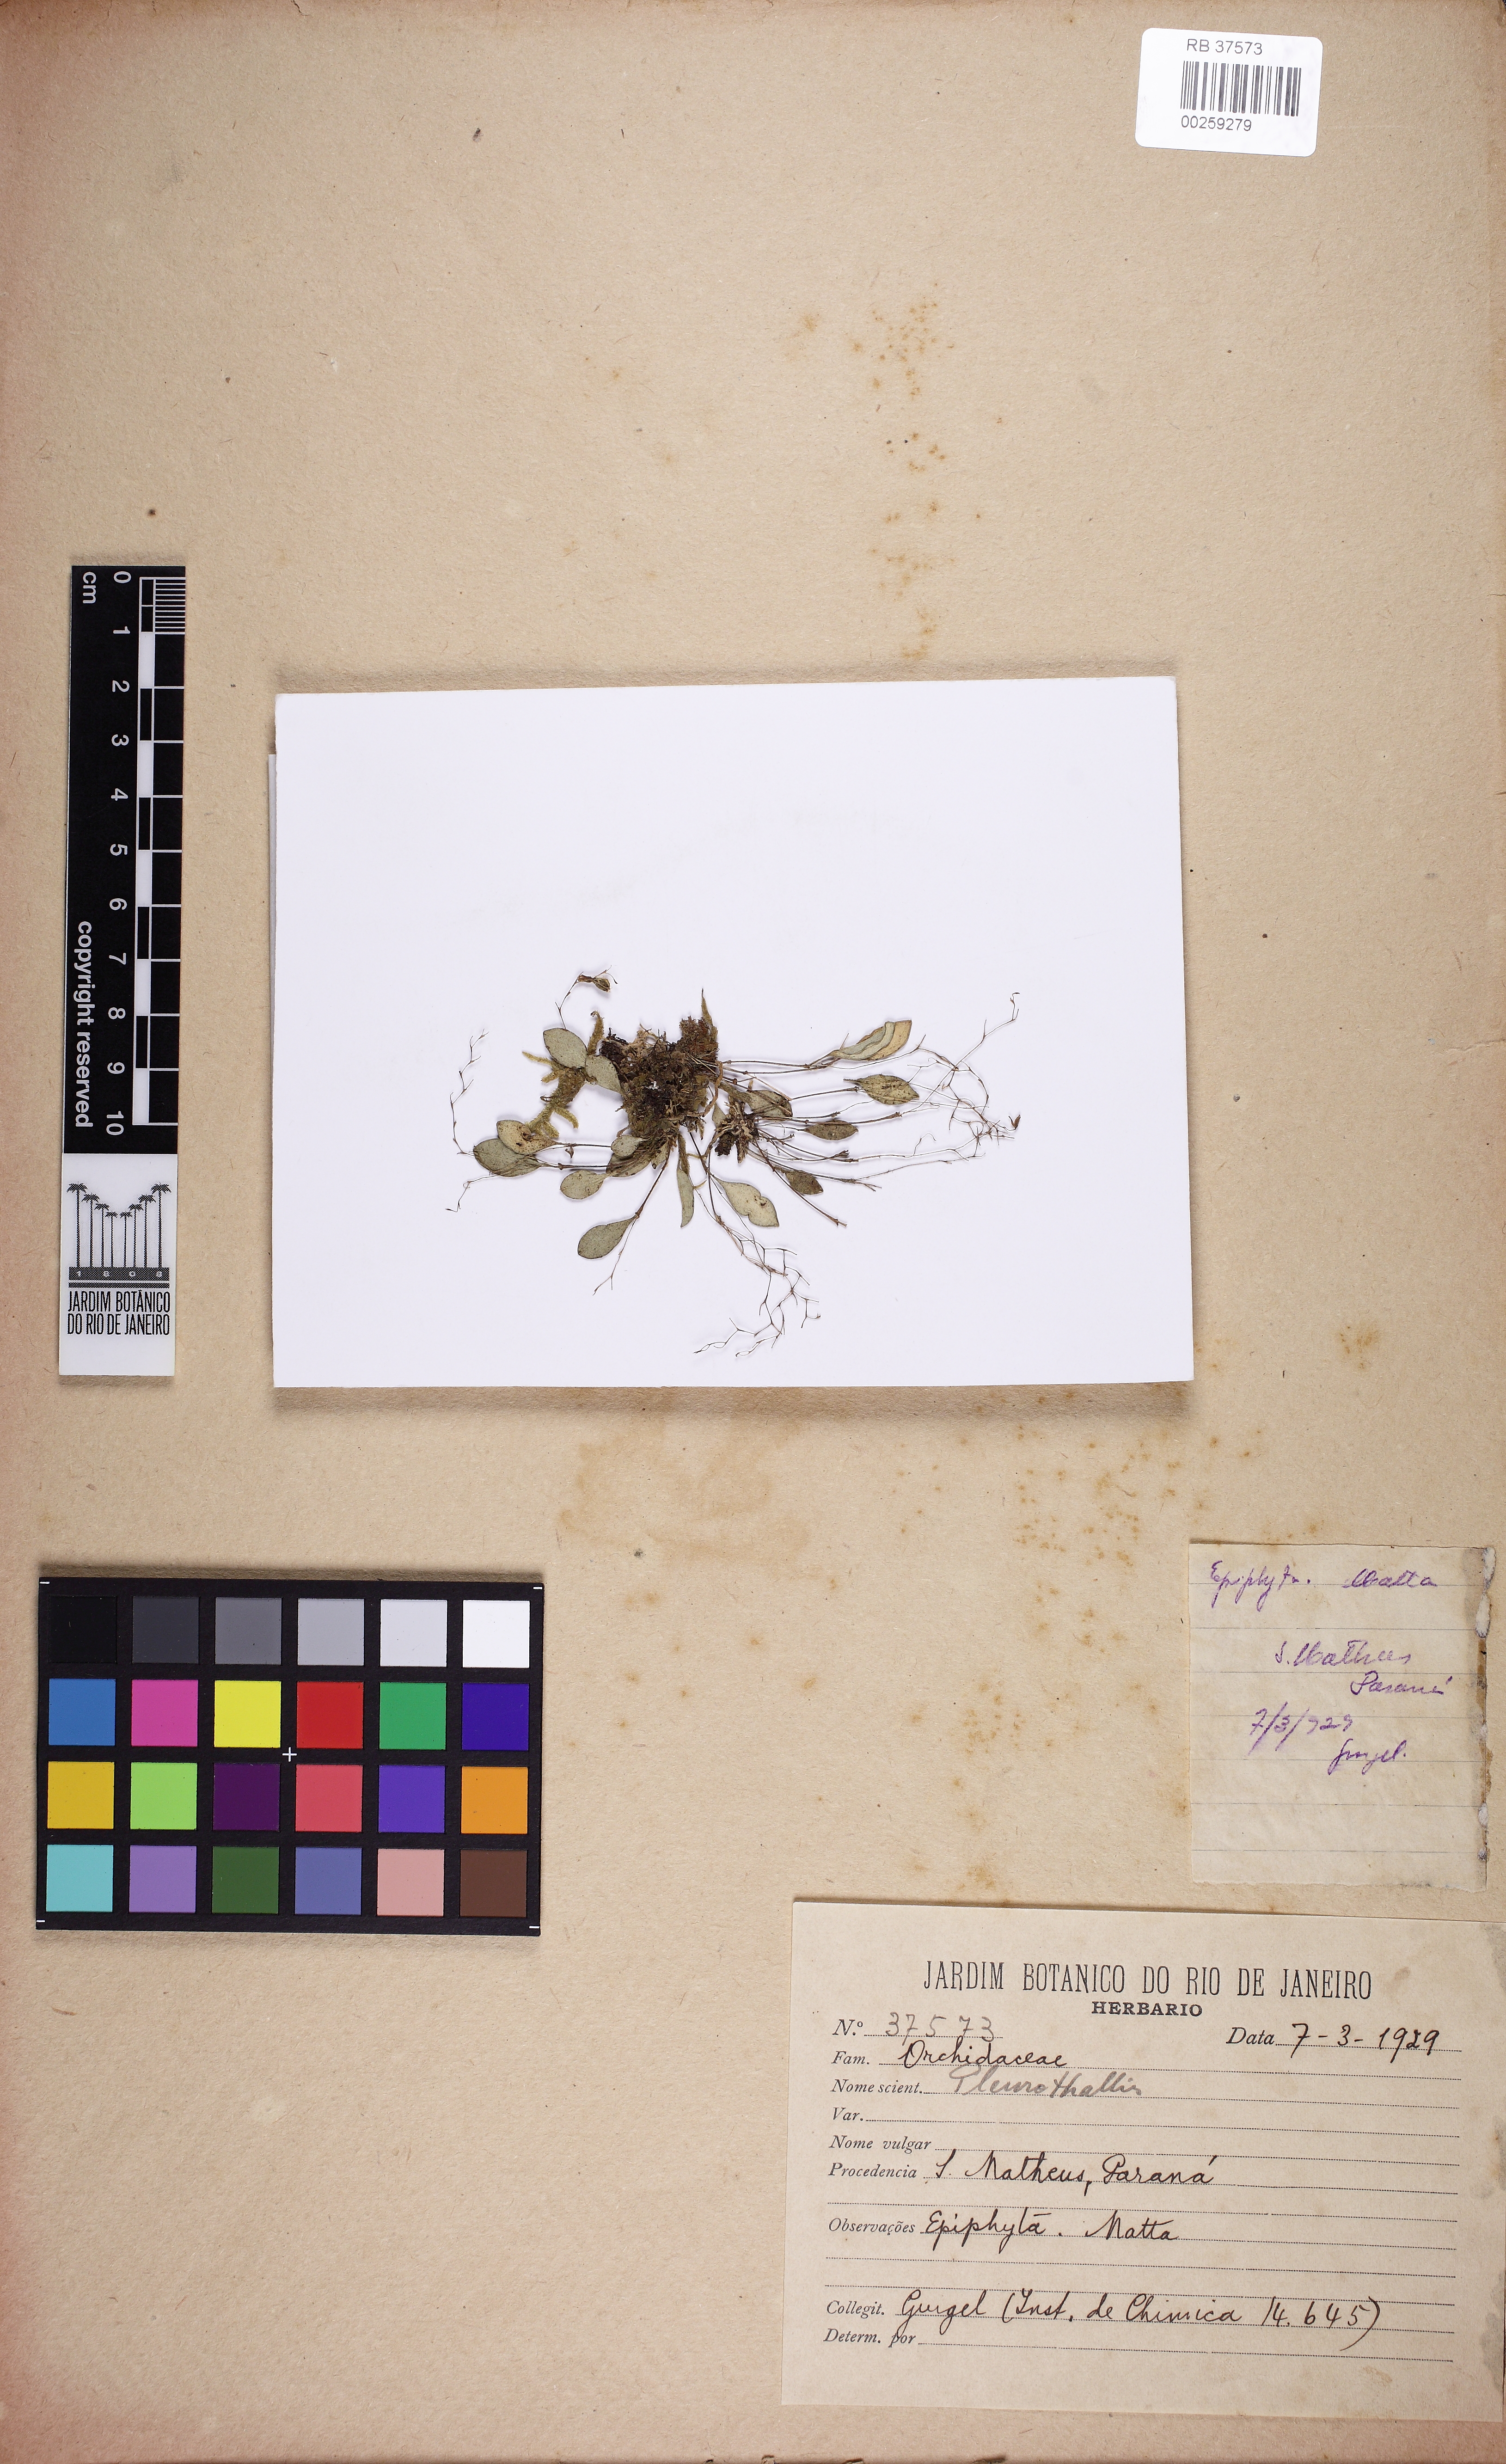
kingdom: Plantae
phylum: Tracheophyta
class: Liliopsida
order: Asparagales
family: Orchidaceae
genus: Acianthera
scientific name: Acianthera
